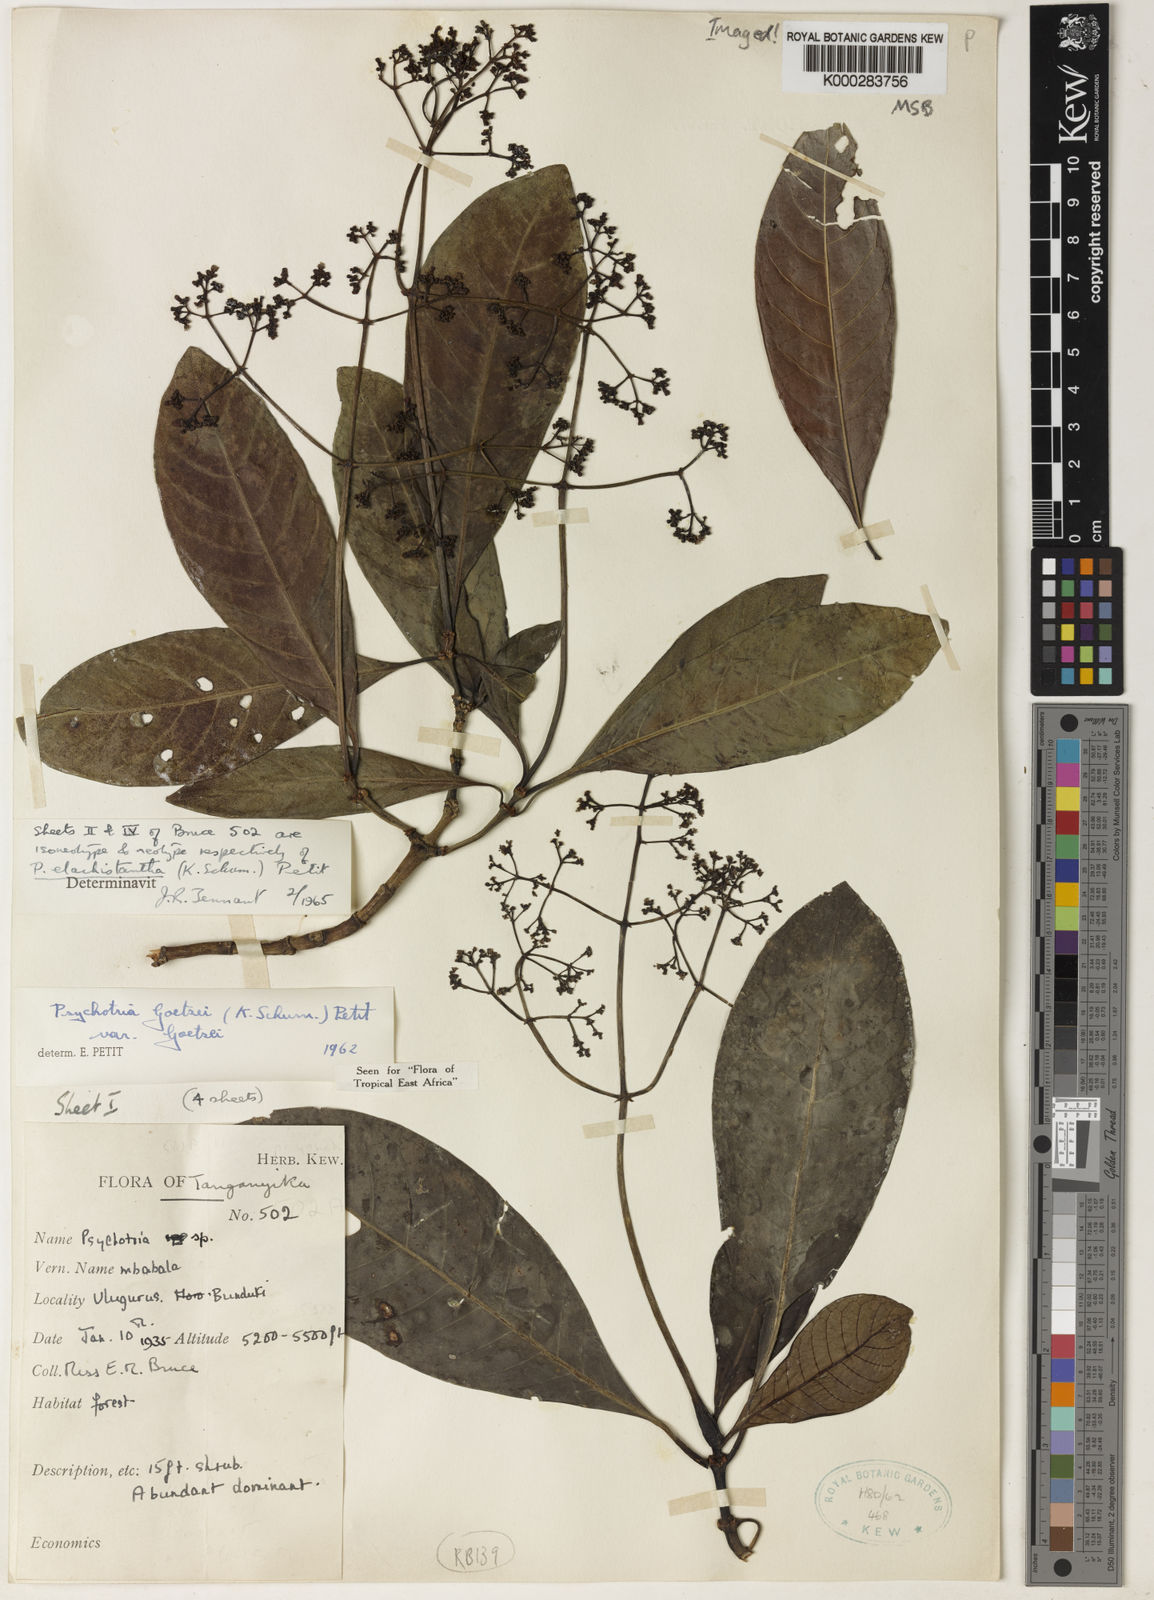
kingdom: Plantae
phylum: Tracheophyta
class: Magnoliopsida
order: Gentianales
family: Rubiaceae
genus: Psychotria
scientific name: Psychotria elachistantha
